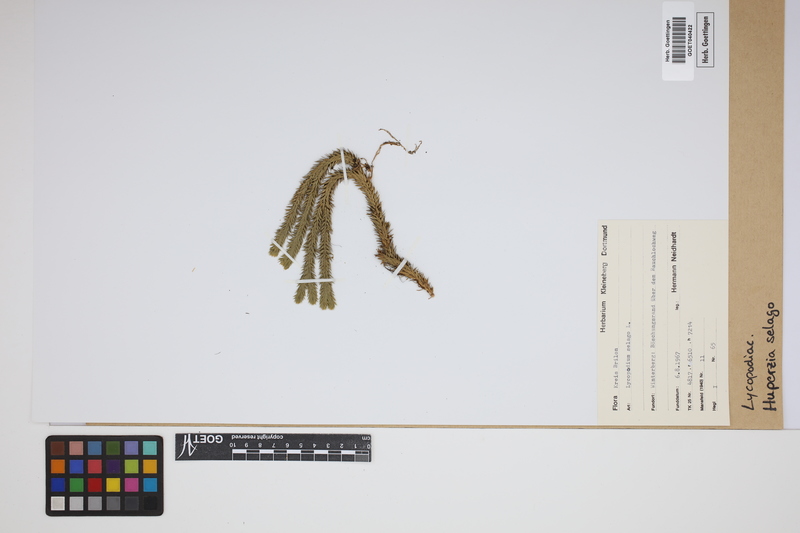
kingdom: Plantae
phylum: Tracheophyta
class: Lycopodiopsida
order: Lycopodiales
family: Lycopodiaceae
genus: Huperzia
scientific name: Huperzia selago
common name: Northern firmoss
